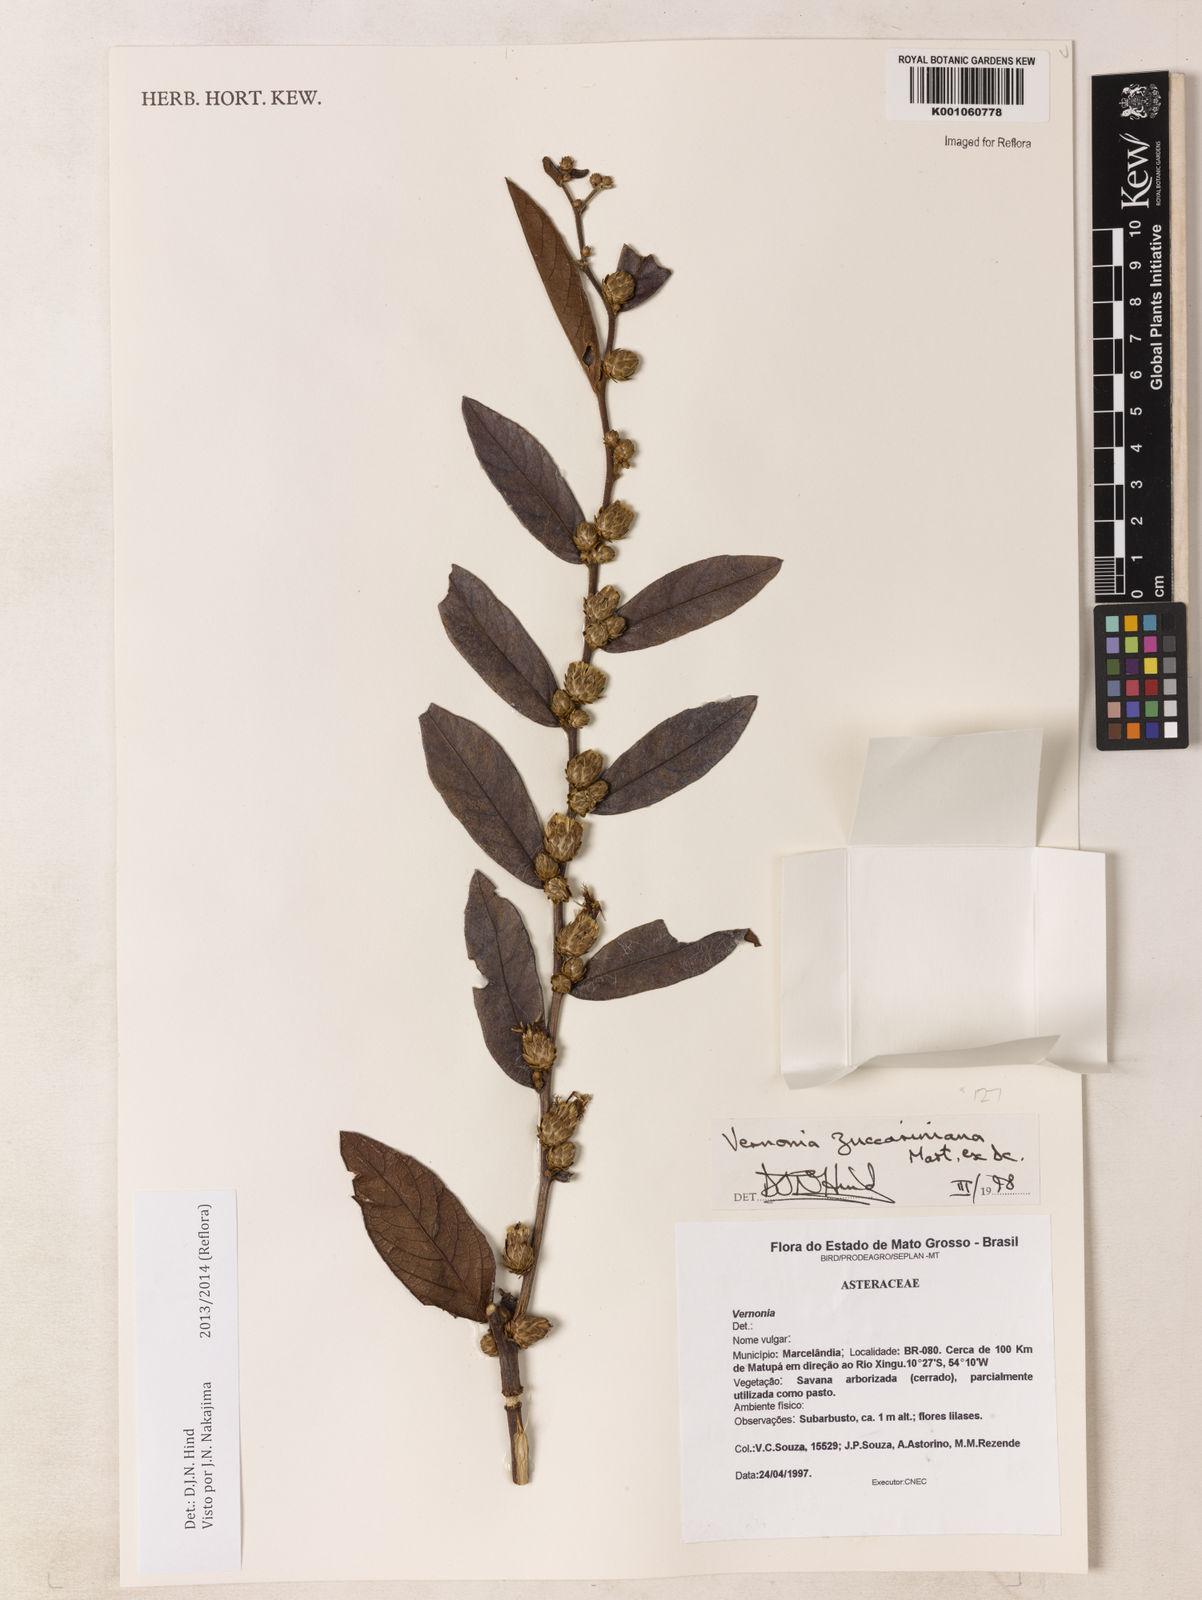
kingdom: Plantae
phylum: Tracheophyta
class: Magnoliopsida
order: Asterales
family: Asteraceae
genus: Lessingianthus
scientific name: Lessingianthus zuccarinianus
